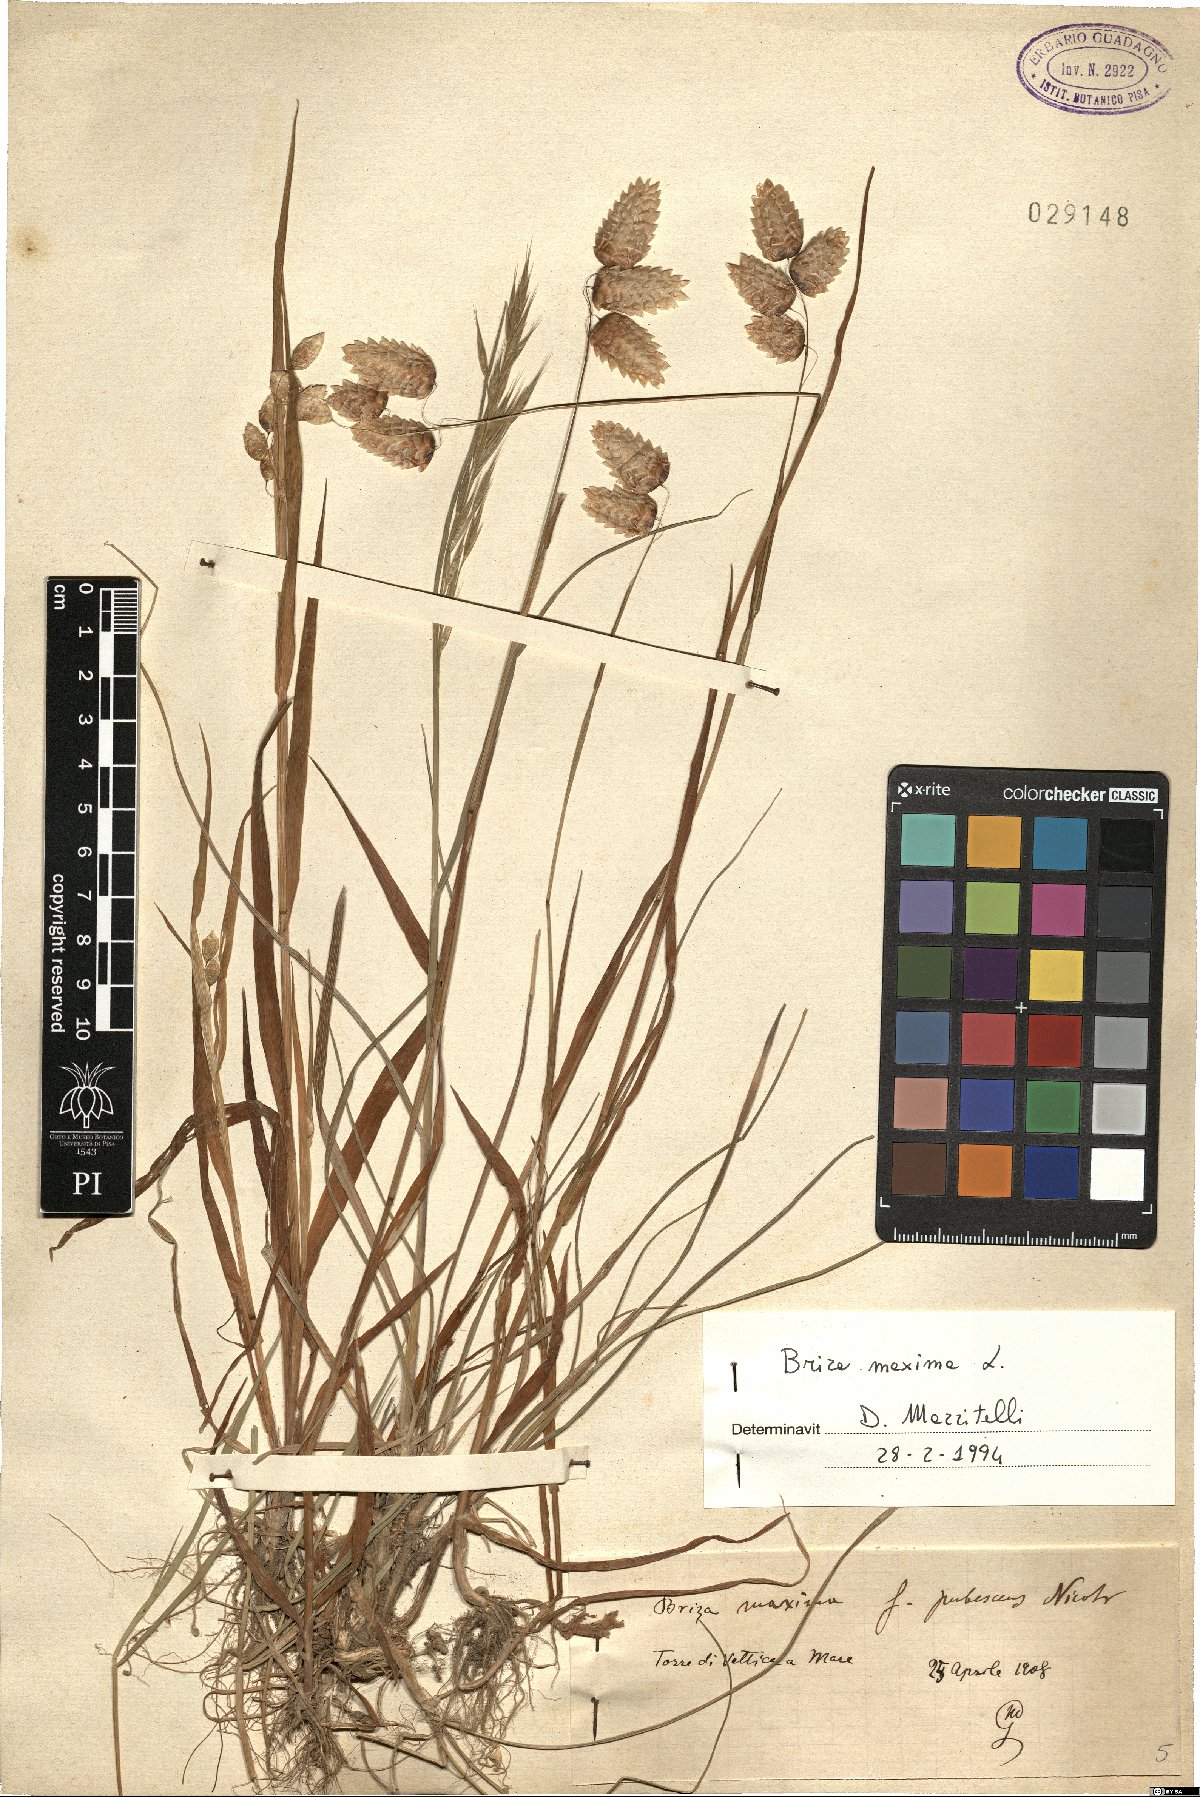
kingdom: Plantae
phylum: Tracheophyta
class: Liliopsida
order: Poales
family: Poaceae
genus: Briza
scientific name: Briza maxima
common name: Big quakinggrass
